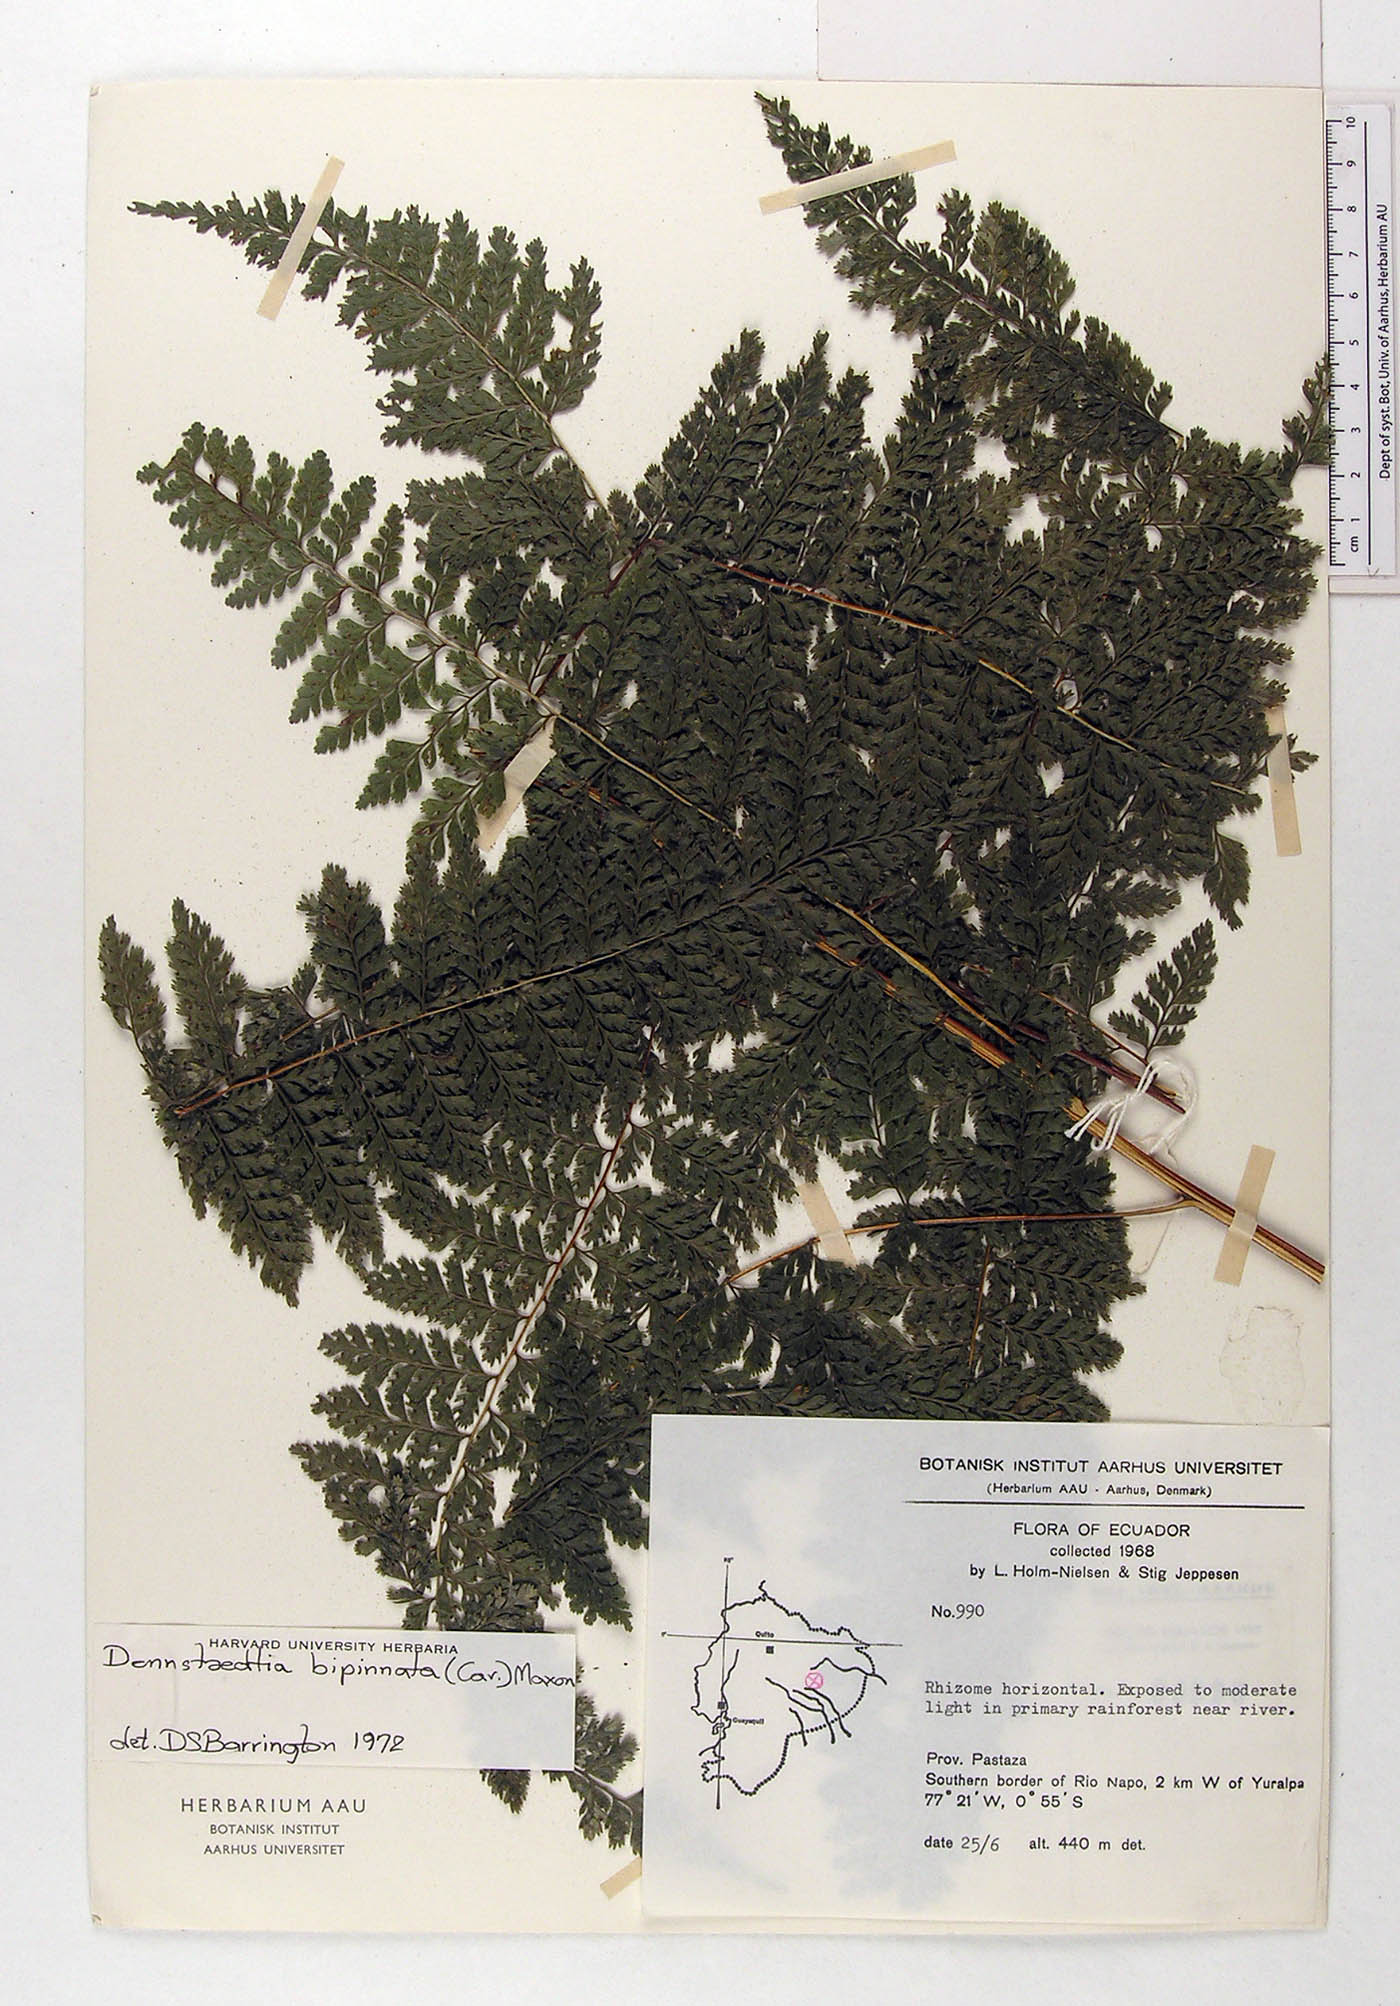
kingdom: Plantae
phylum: Tracheophyta
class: Polypodiopsida
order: Polypodiales
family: Dennstaedtiaceae
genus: Mucura
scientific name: Mucura bipinnata
